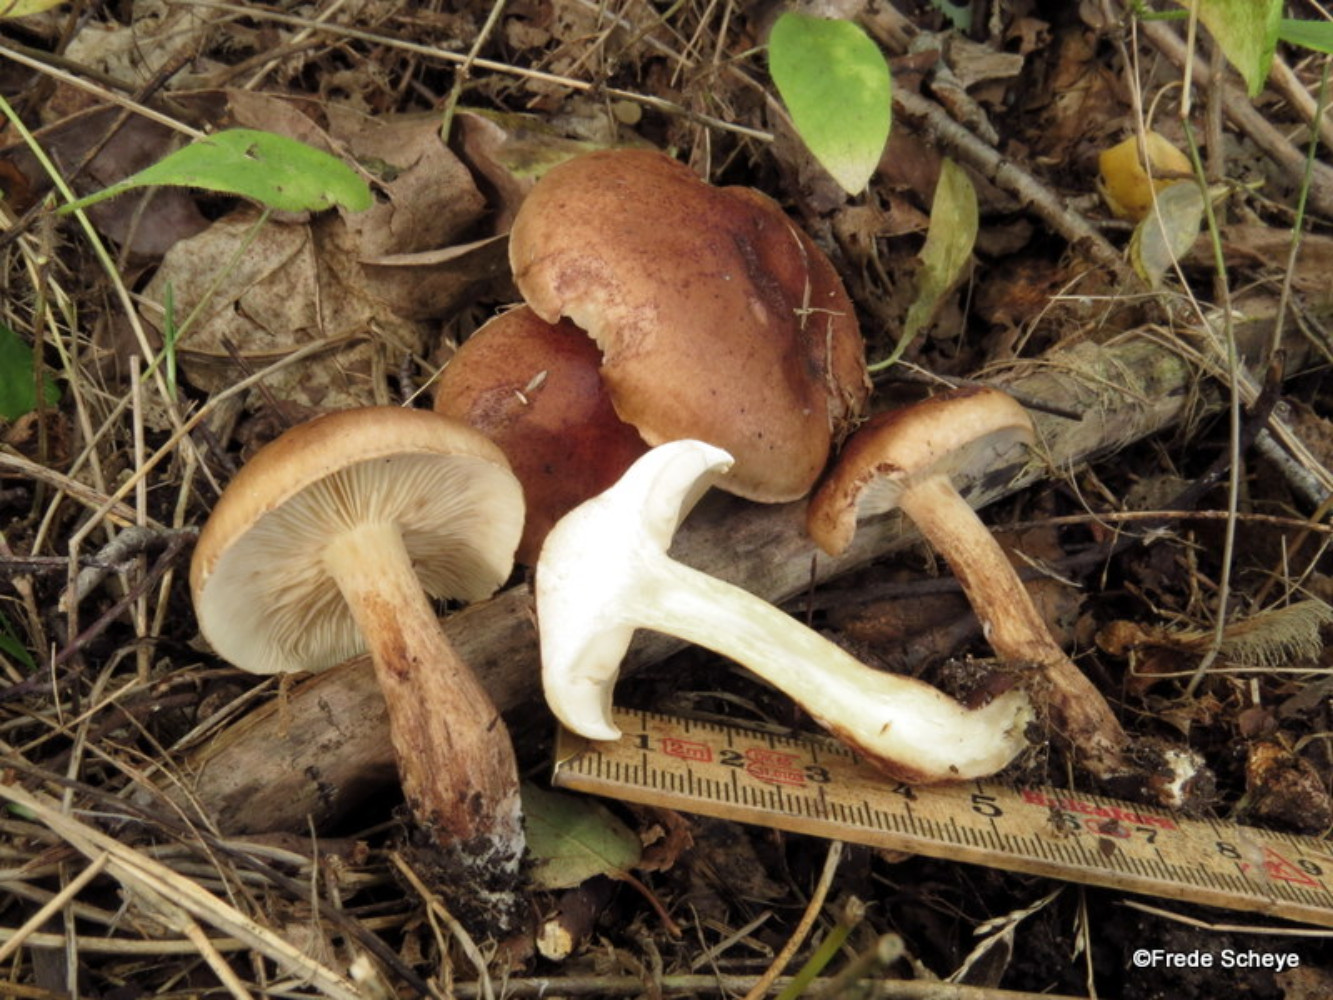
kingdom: Fungi
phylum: Basidiomycota
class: Agaricomycetes
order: Agaricales
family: Tricholomataceae
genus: Tricholoma
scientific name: Tricholoma ustale
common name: sveden ridderhat
